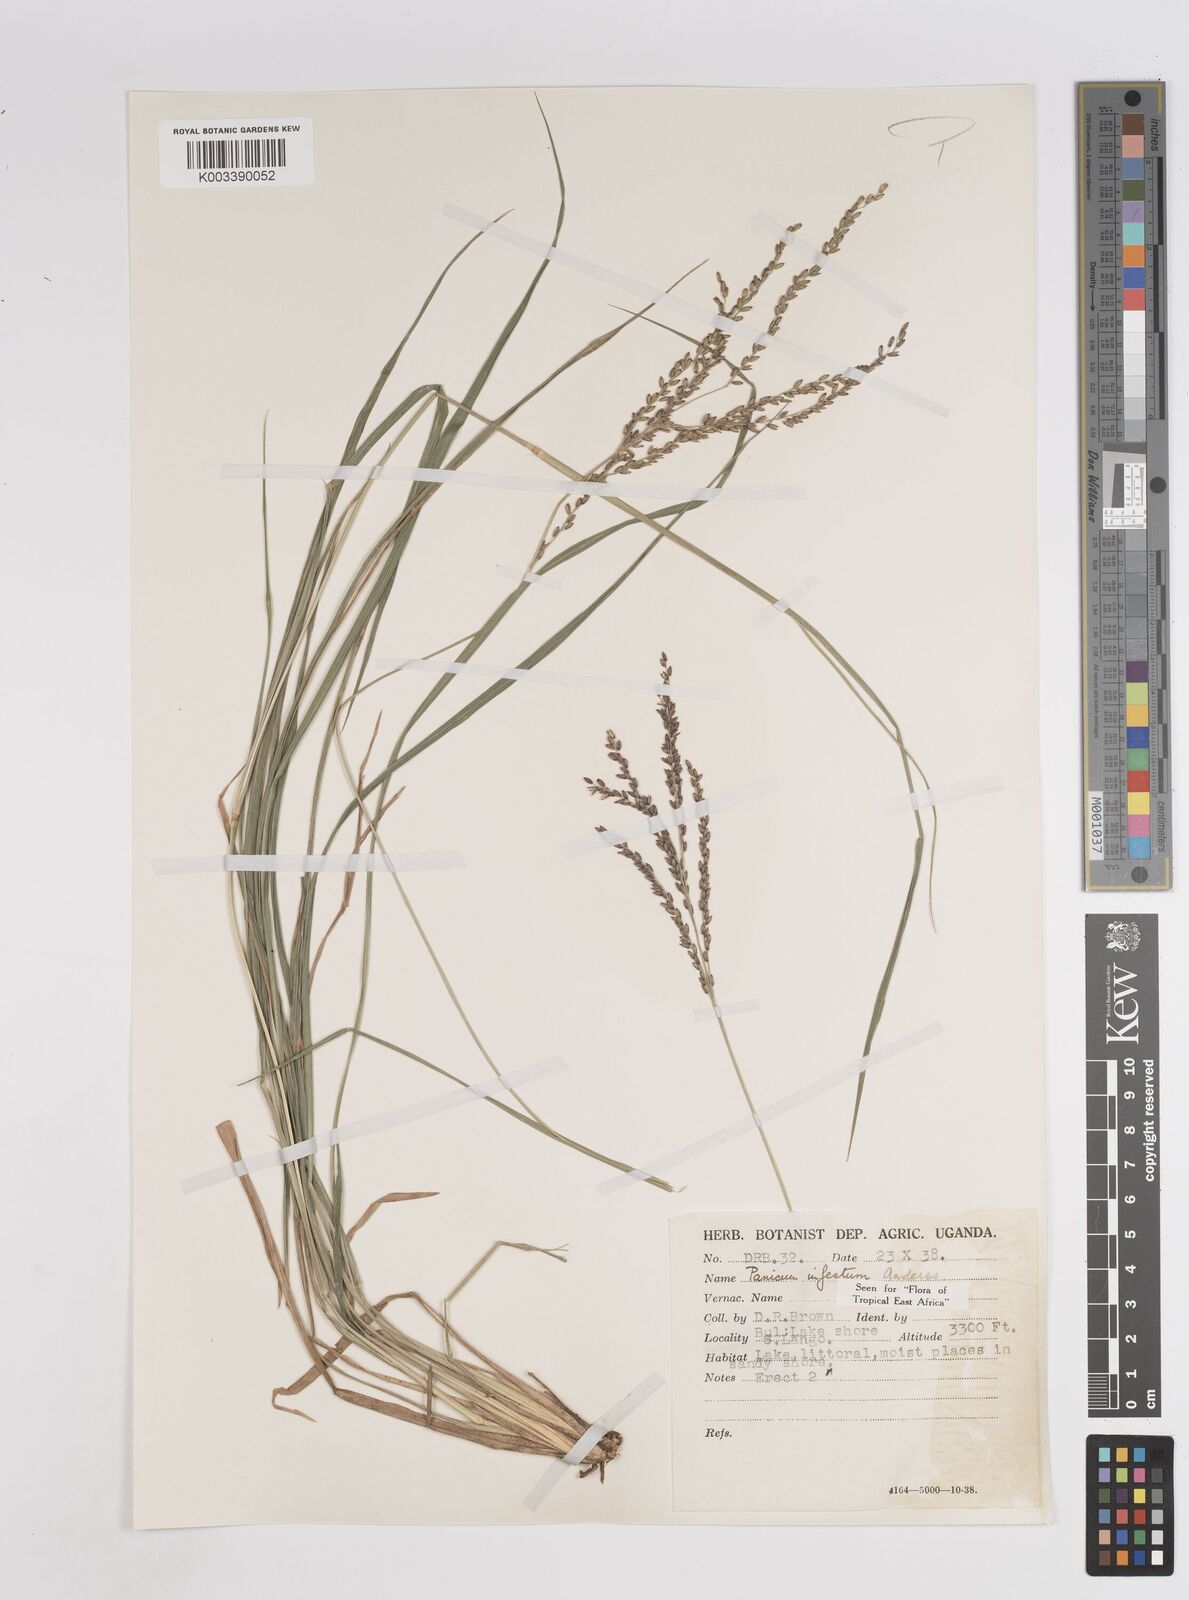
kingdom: Plantae
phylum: Tracheophyta
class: Liliopsida
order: Poales
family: Poaceae
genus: Megathyrsus
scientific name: Megathyrsus infestus
